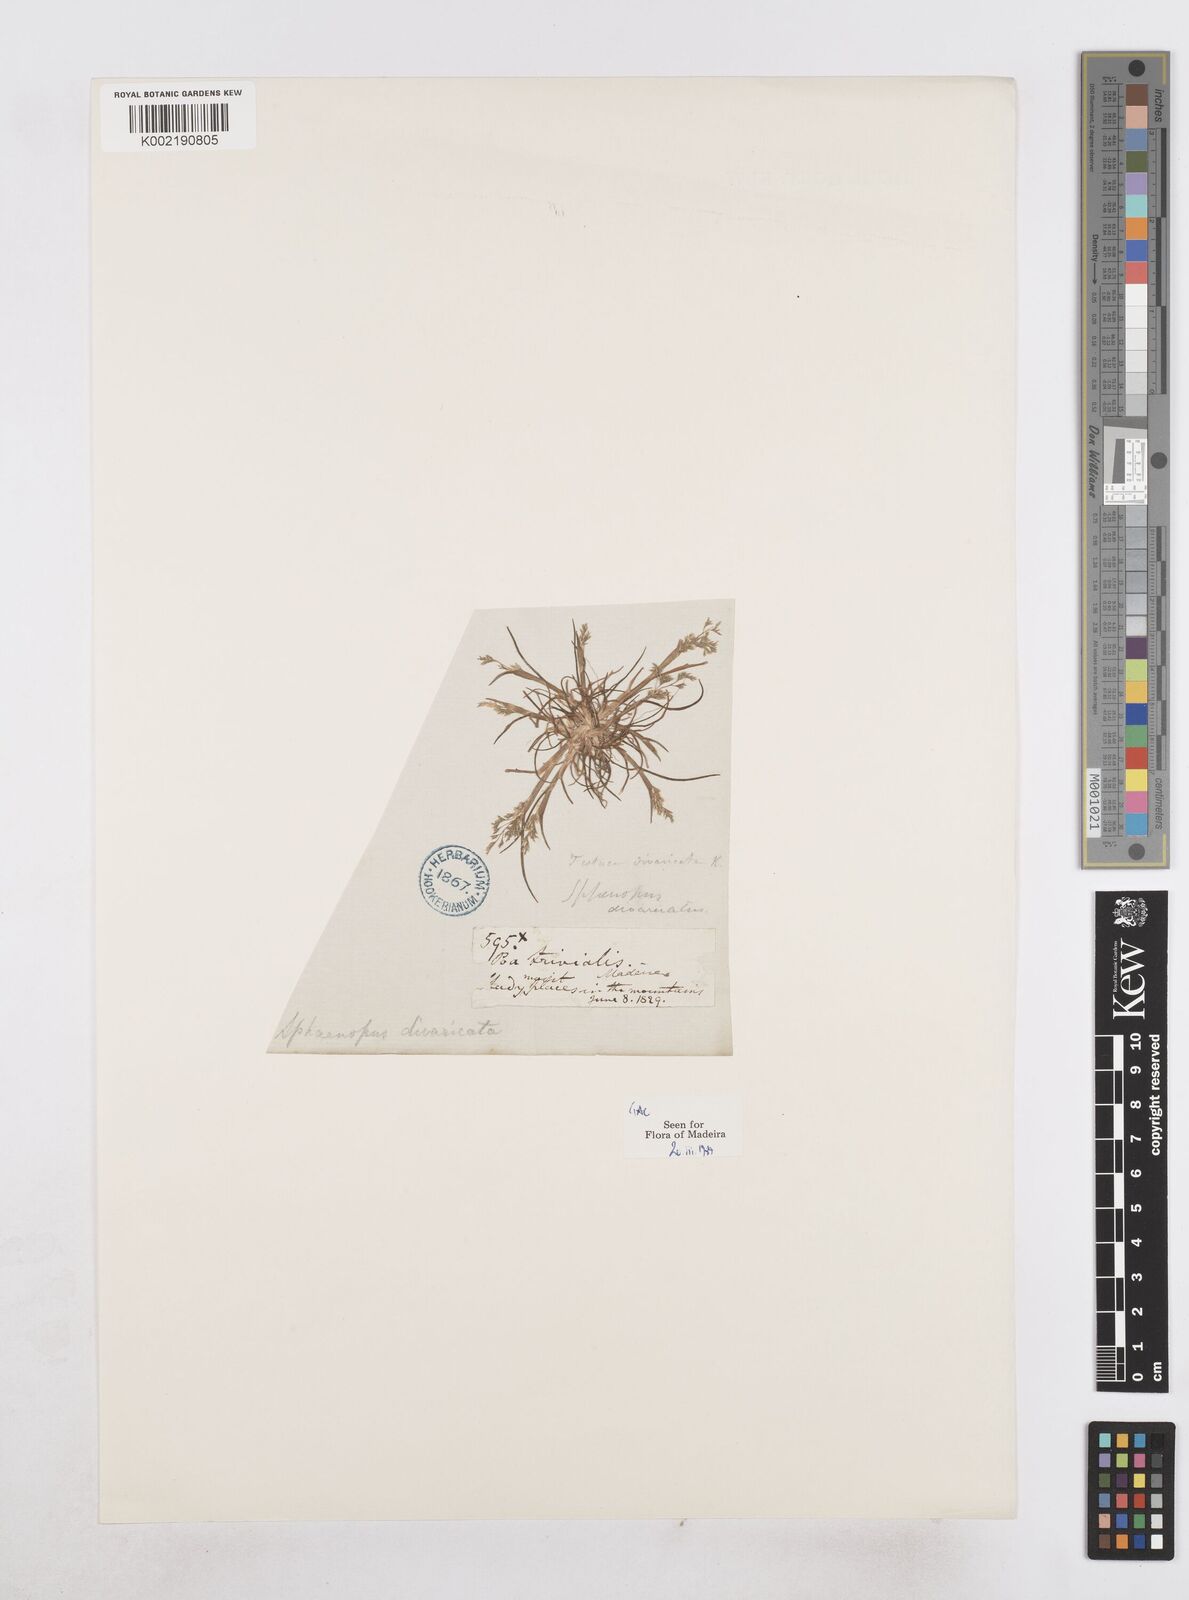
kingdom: Plantae
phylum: Tracheophyta
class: Liliopsida
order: Poales
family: Poaceae
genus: Sphenopus
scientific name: Sphenopus divaricatus
